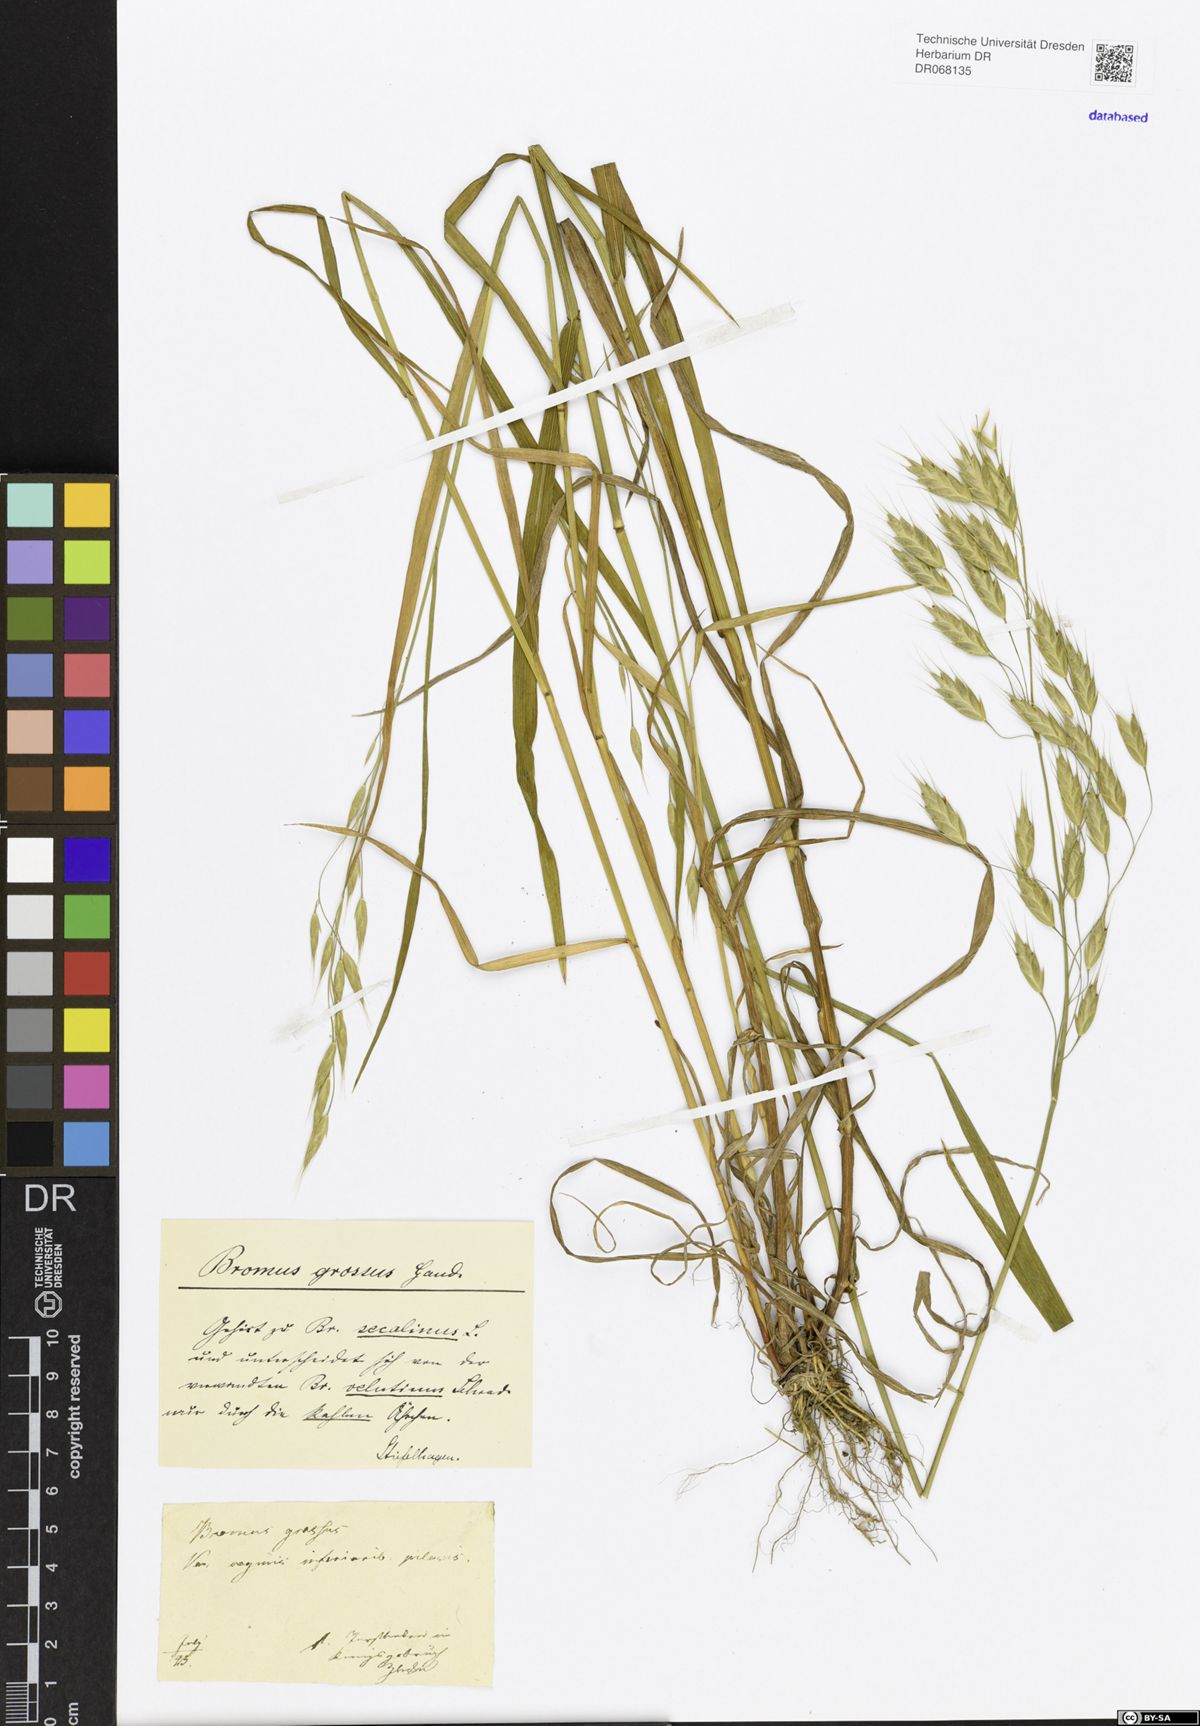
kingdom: Plantae
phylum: Tracheophyta
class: Liliopsida
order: Poales
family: Poaceae
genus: Bromus
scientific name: Bromus grossus
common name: Whiskered brome
